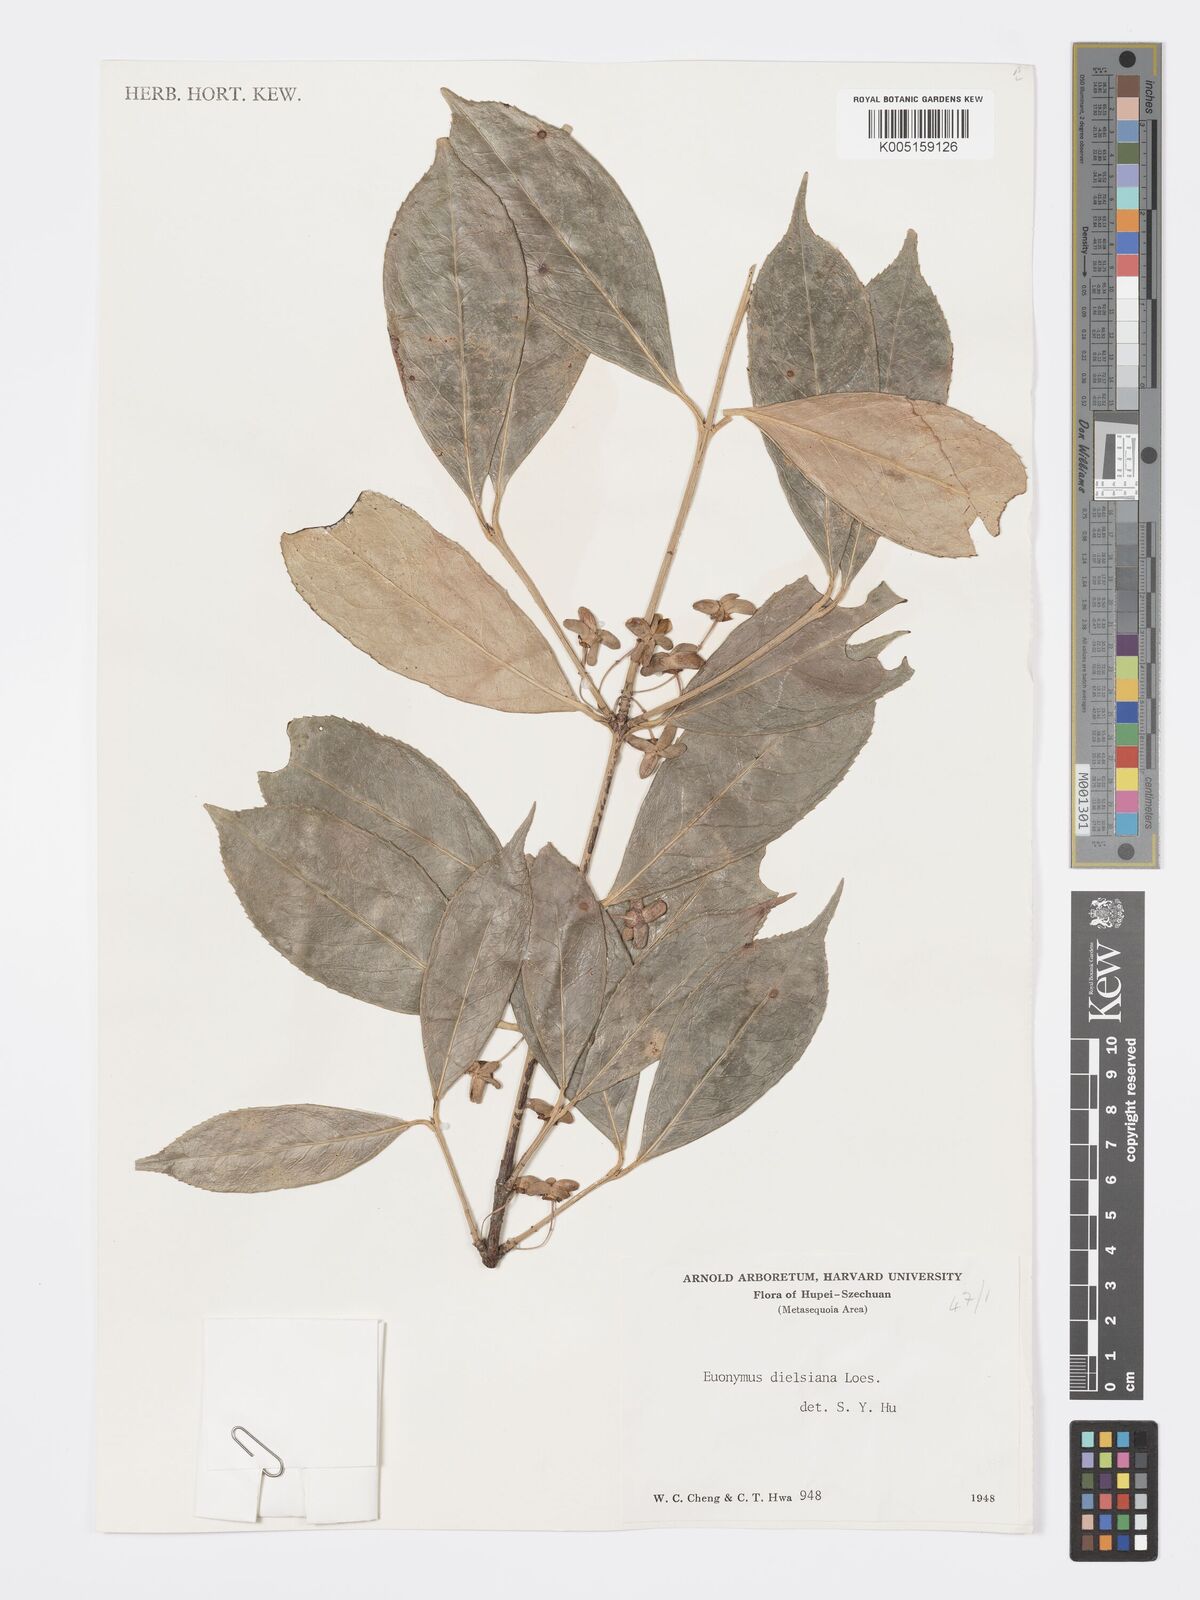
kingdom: Plantae
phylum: Tracheophyta
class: Magnoliopsida
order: Celastrales
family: Celastraceae
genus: Euonymus
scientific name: Euonymus dielsianus
